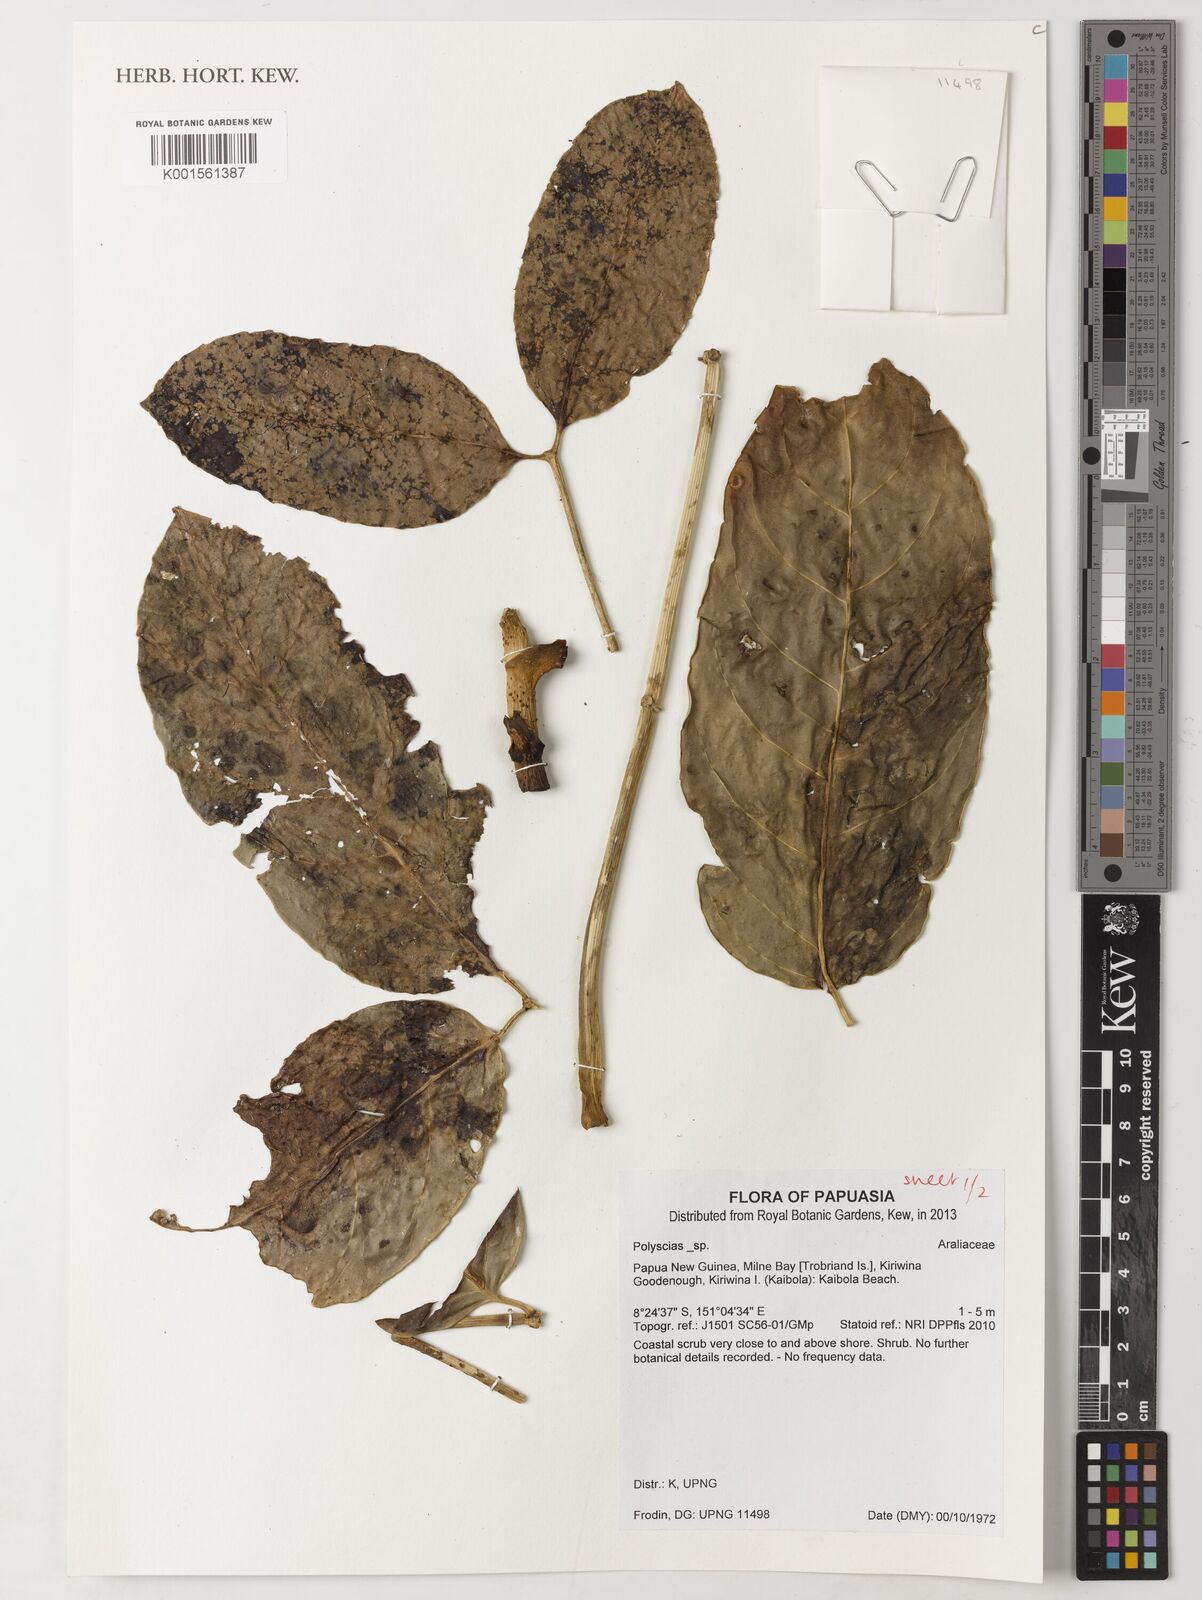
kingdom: Plantae
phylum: Tracheophyta
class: Magnoliopsida
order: Apiales
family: Araliaceae
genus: Polyscias
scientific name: Polyscias
